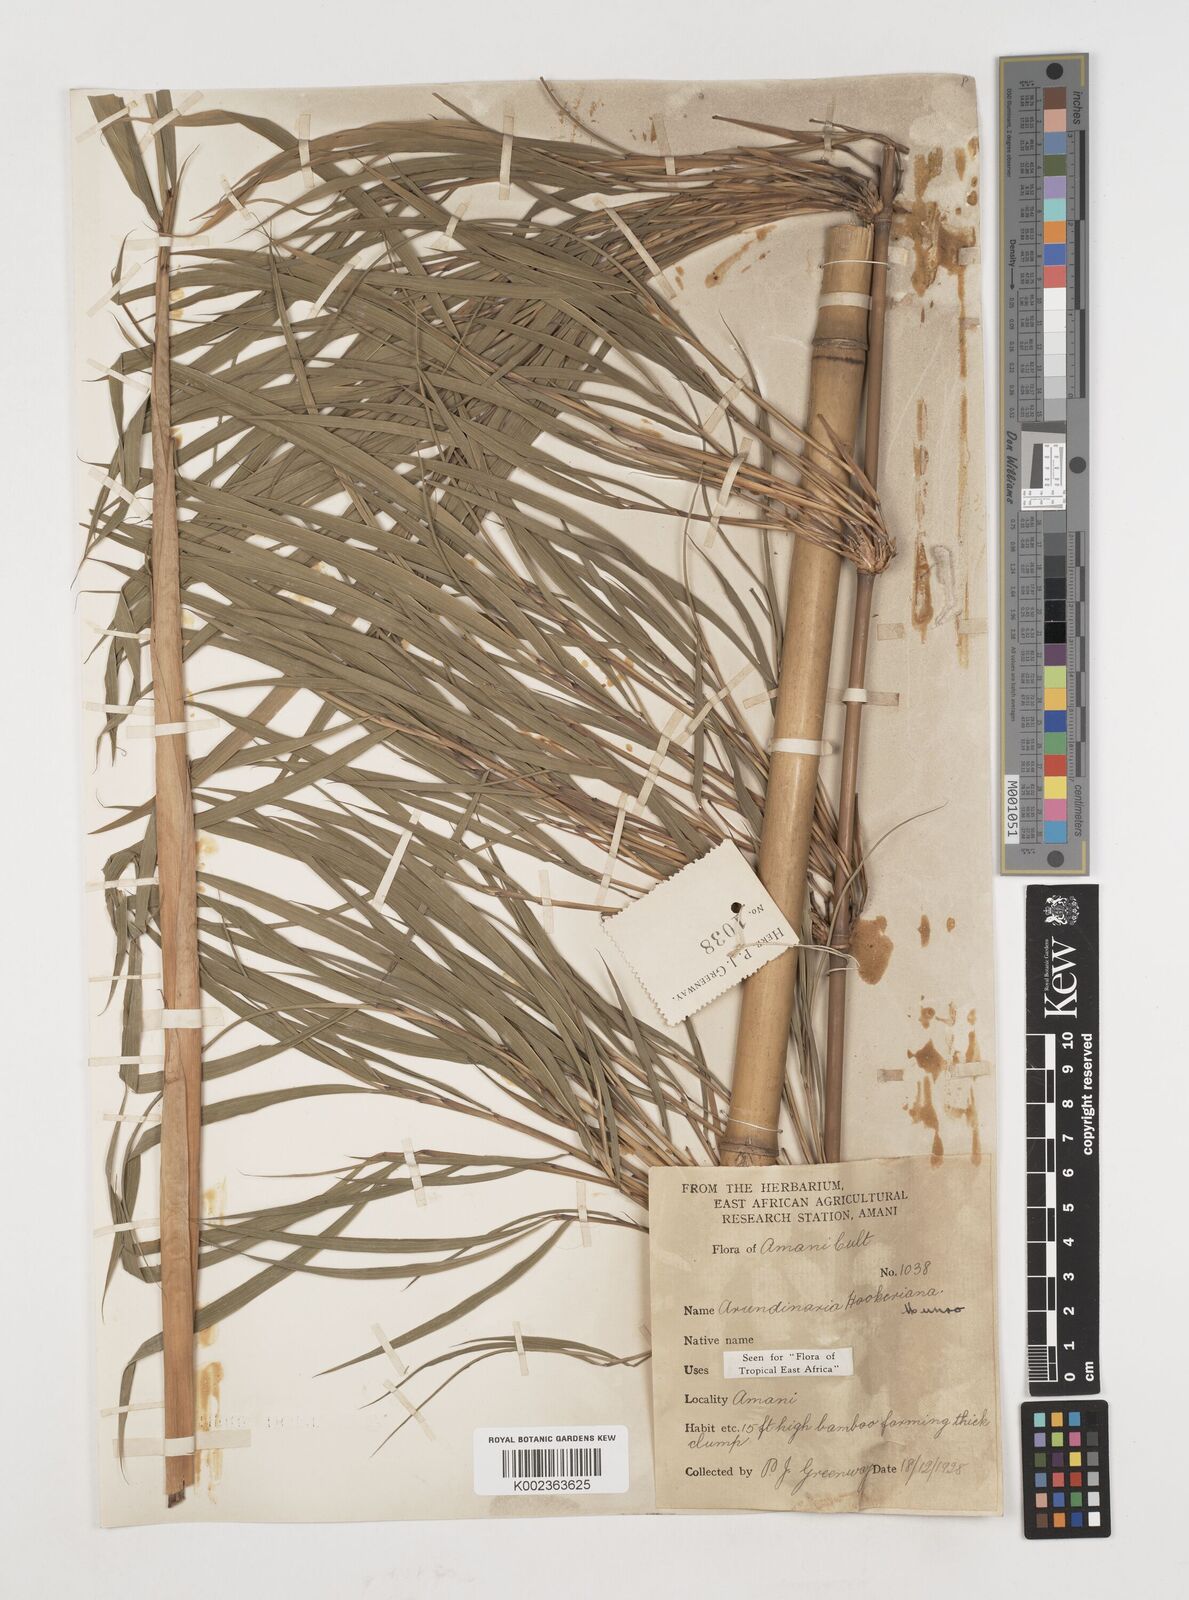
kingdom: Plantae
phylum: Tracheophyta
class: Liliopsida
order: Poales
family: Poaceae
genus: Himalayacalamus
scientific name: Himalayacalamus hookerianus
